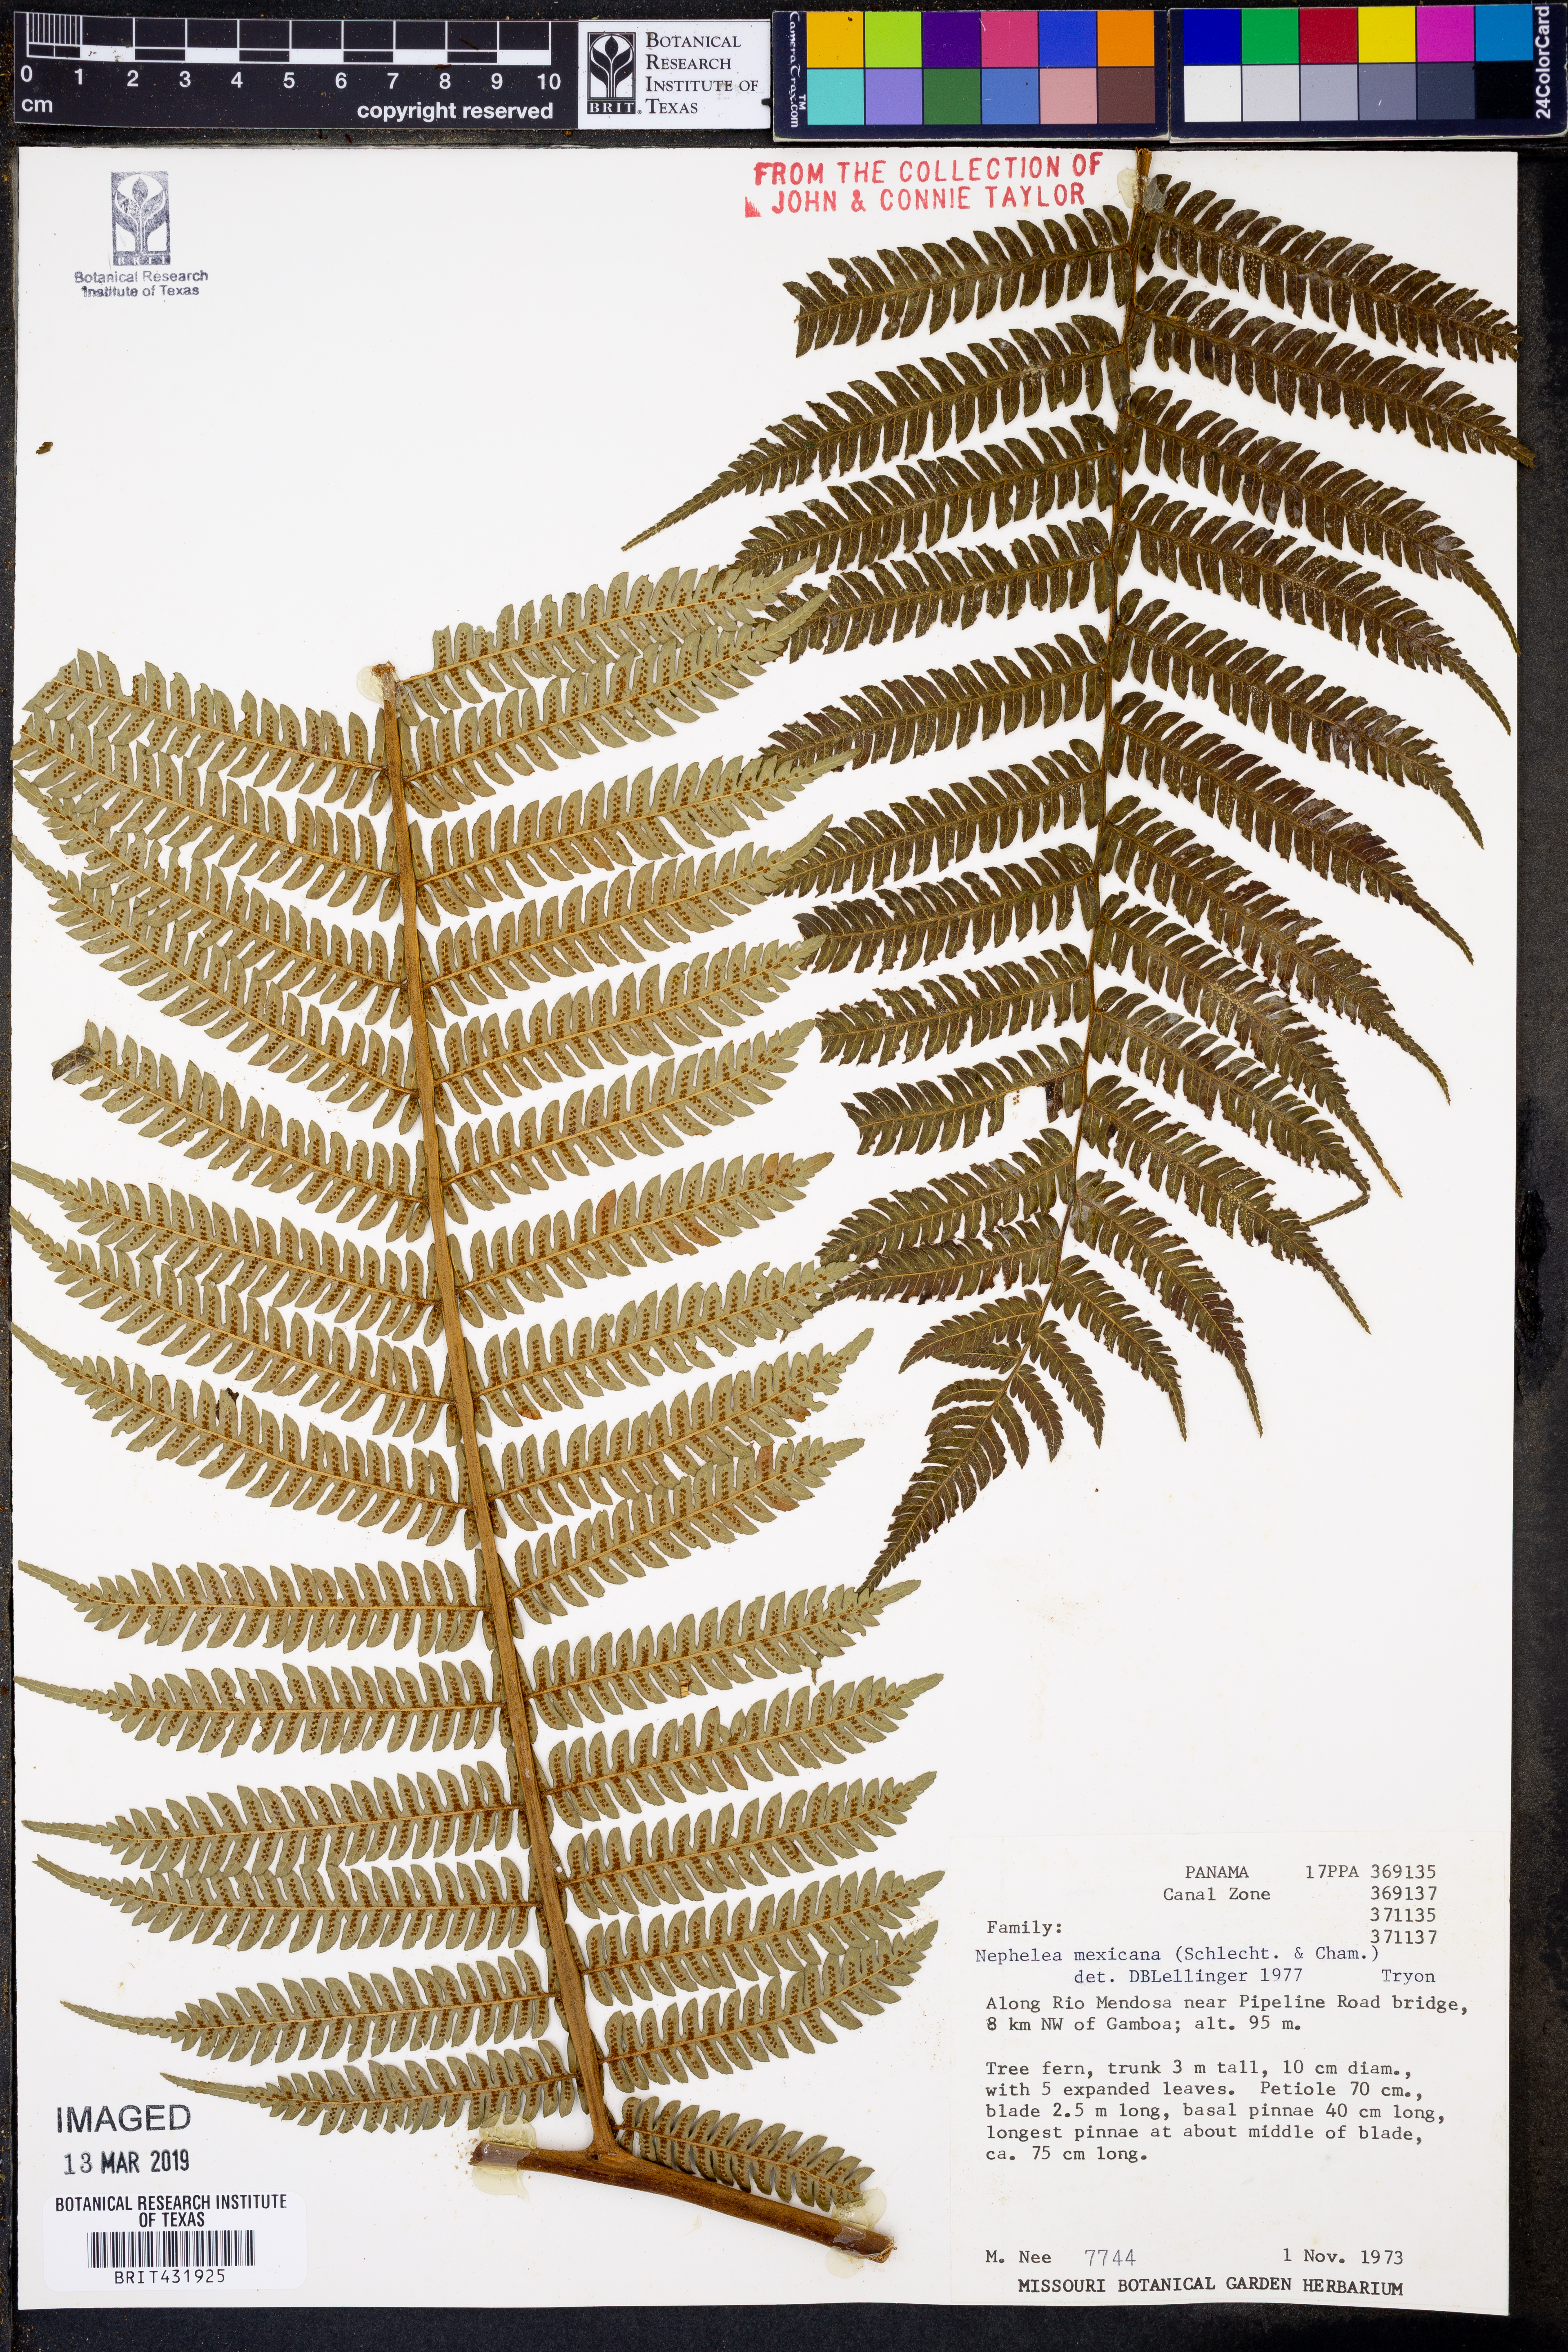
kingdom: Plantae
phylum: Tracheophyta
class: Polypodiopsida
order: Cyatheales
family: Cyatheaceae
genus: Alsophila
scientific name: Alsophila firma
